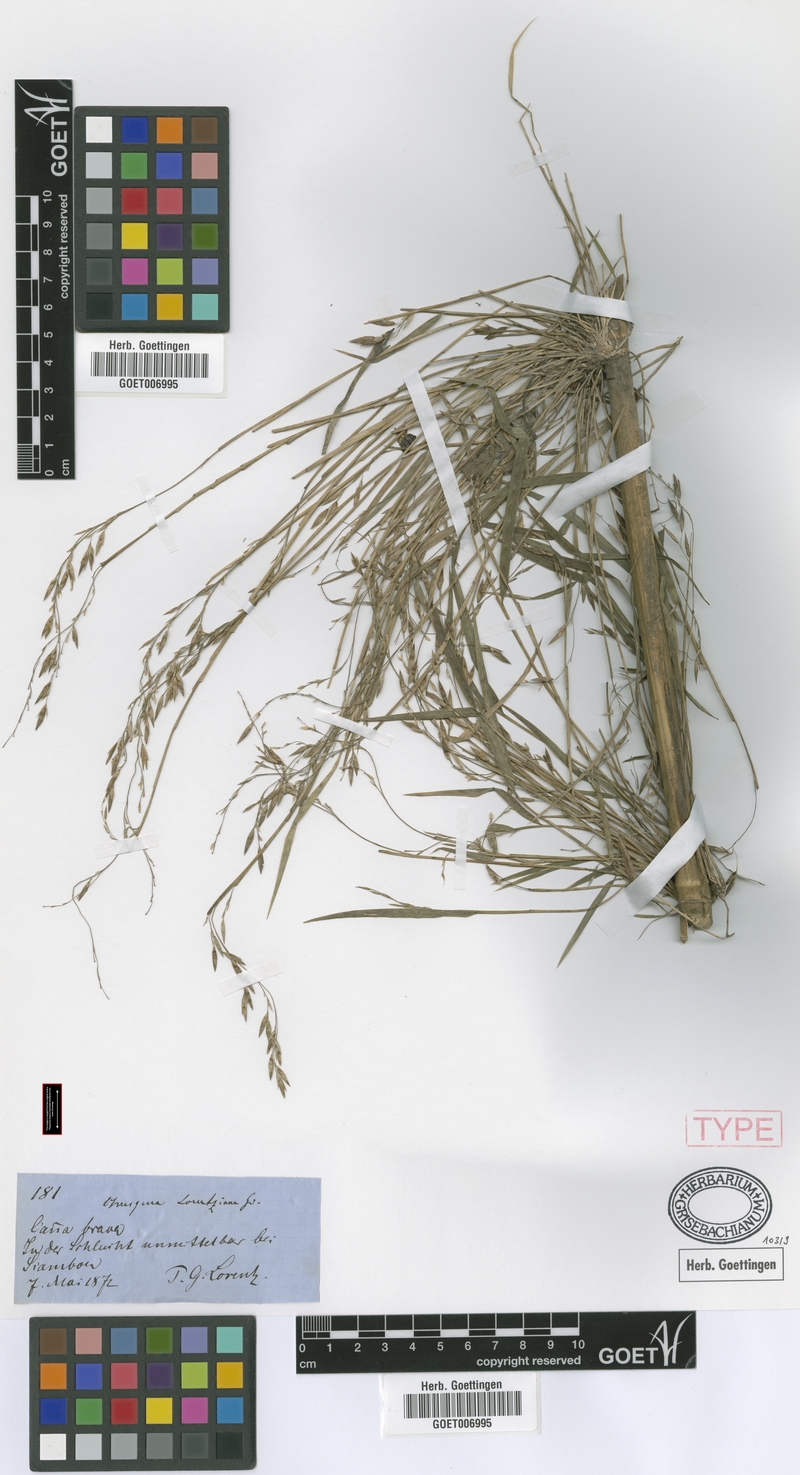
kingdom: Plantae
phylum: Tracheophyta
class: Liliopsida
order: Poales
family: Poaceae
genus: Chusquea
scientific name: Chusquea lorentziana
